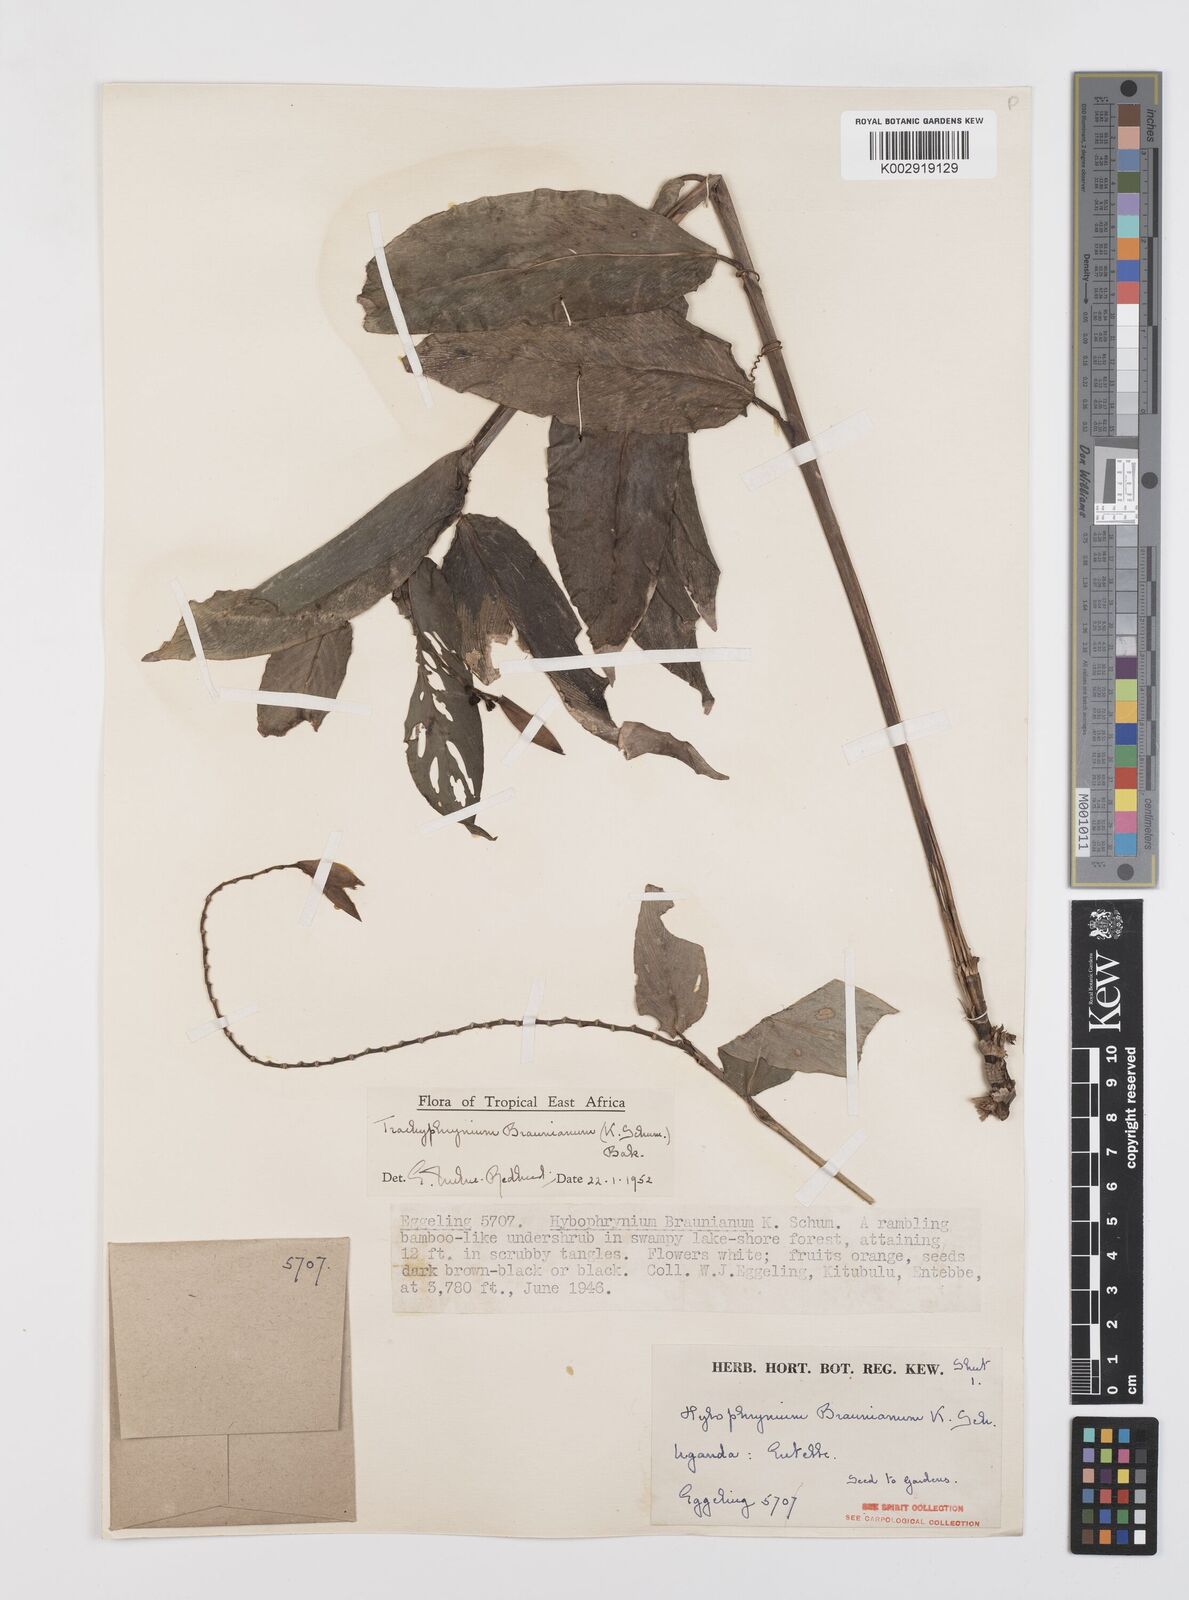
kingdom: Plantae
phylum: Tracheophyta
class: Liliopsida
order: Zingiberales
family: Marantaceae
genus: Trachyphrynium
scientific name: Trachyphrynium braunianum
